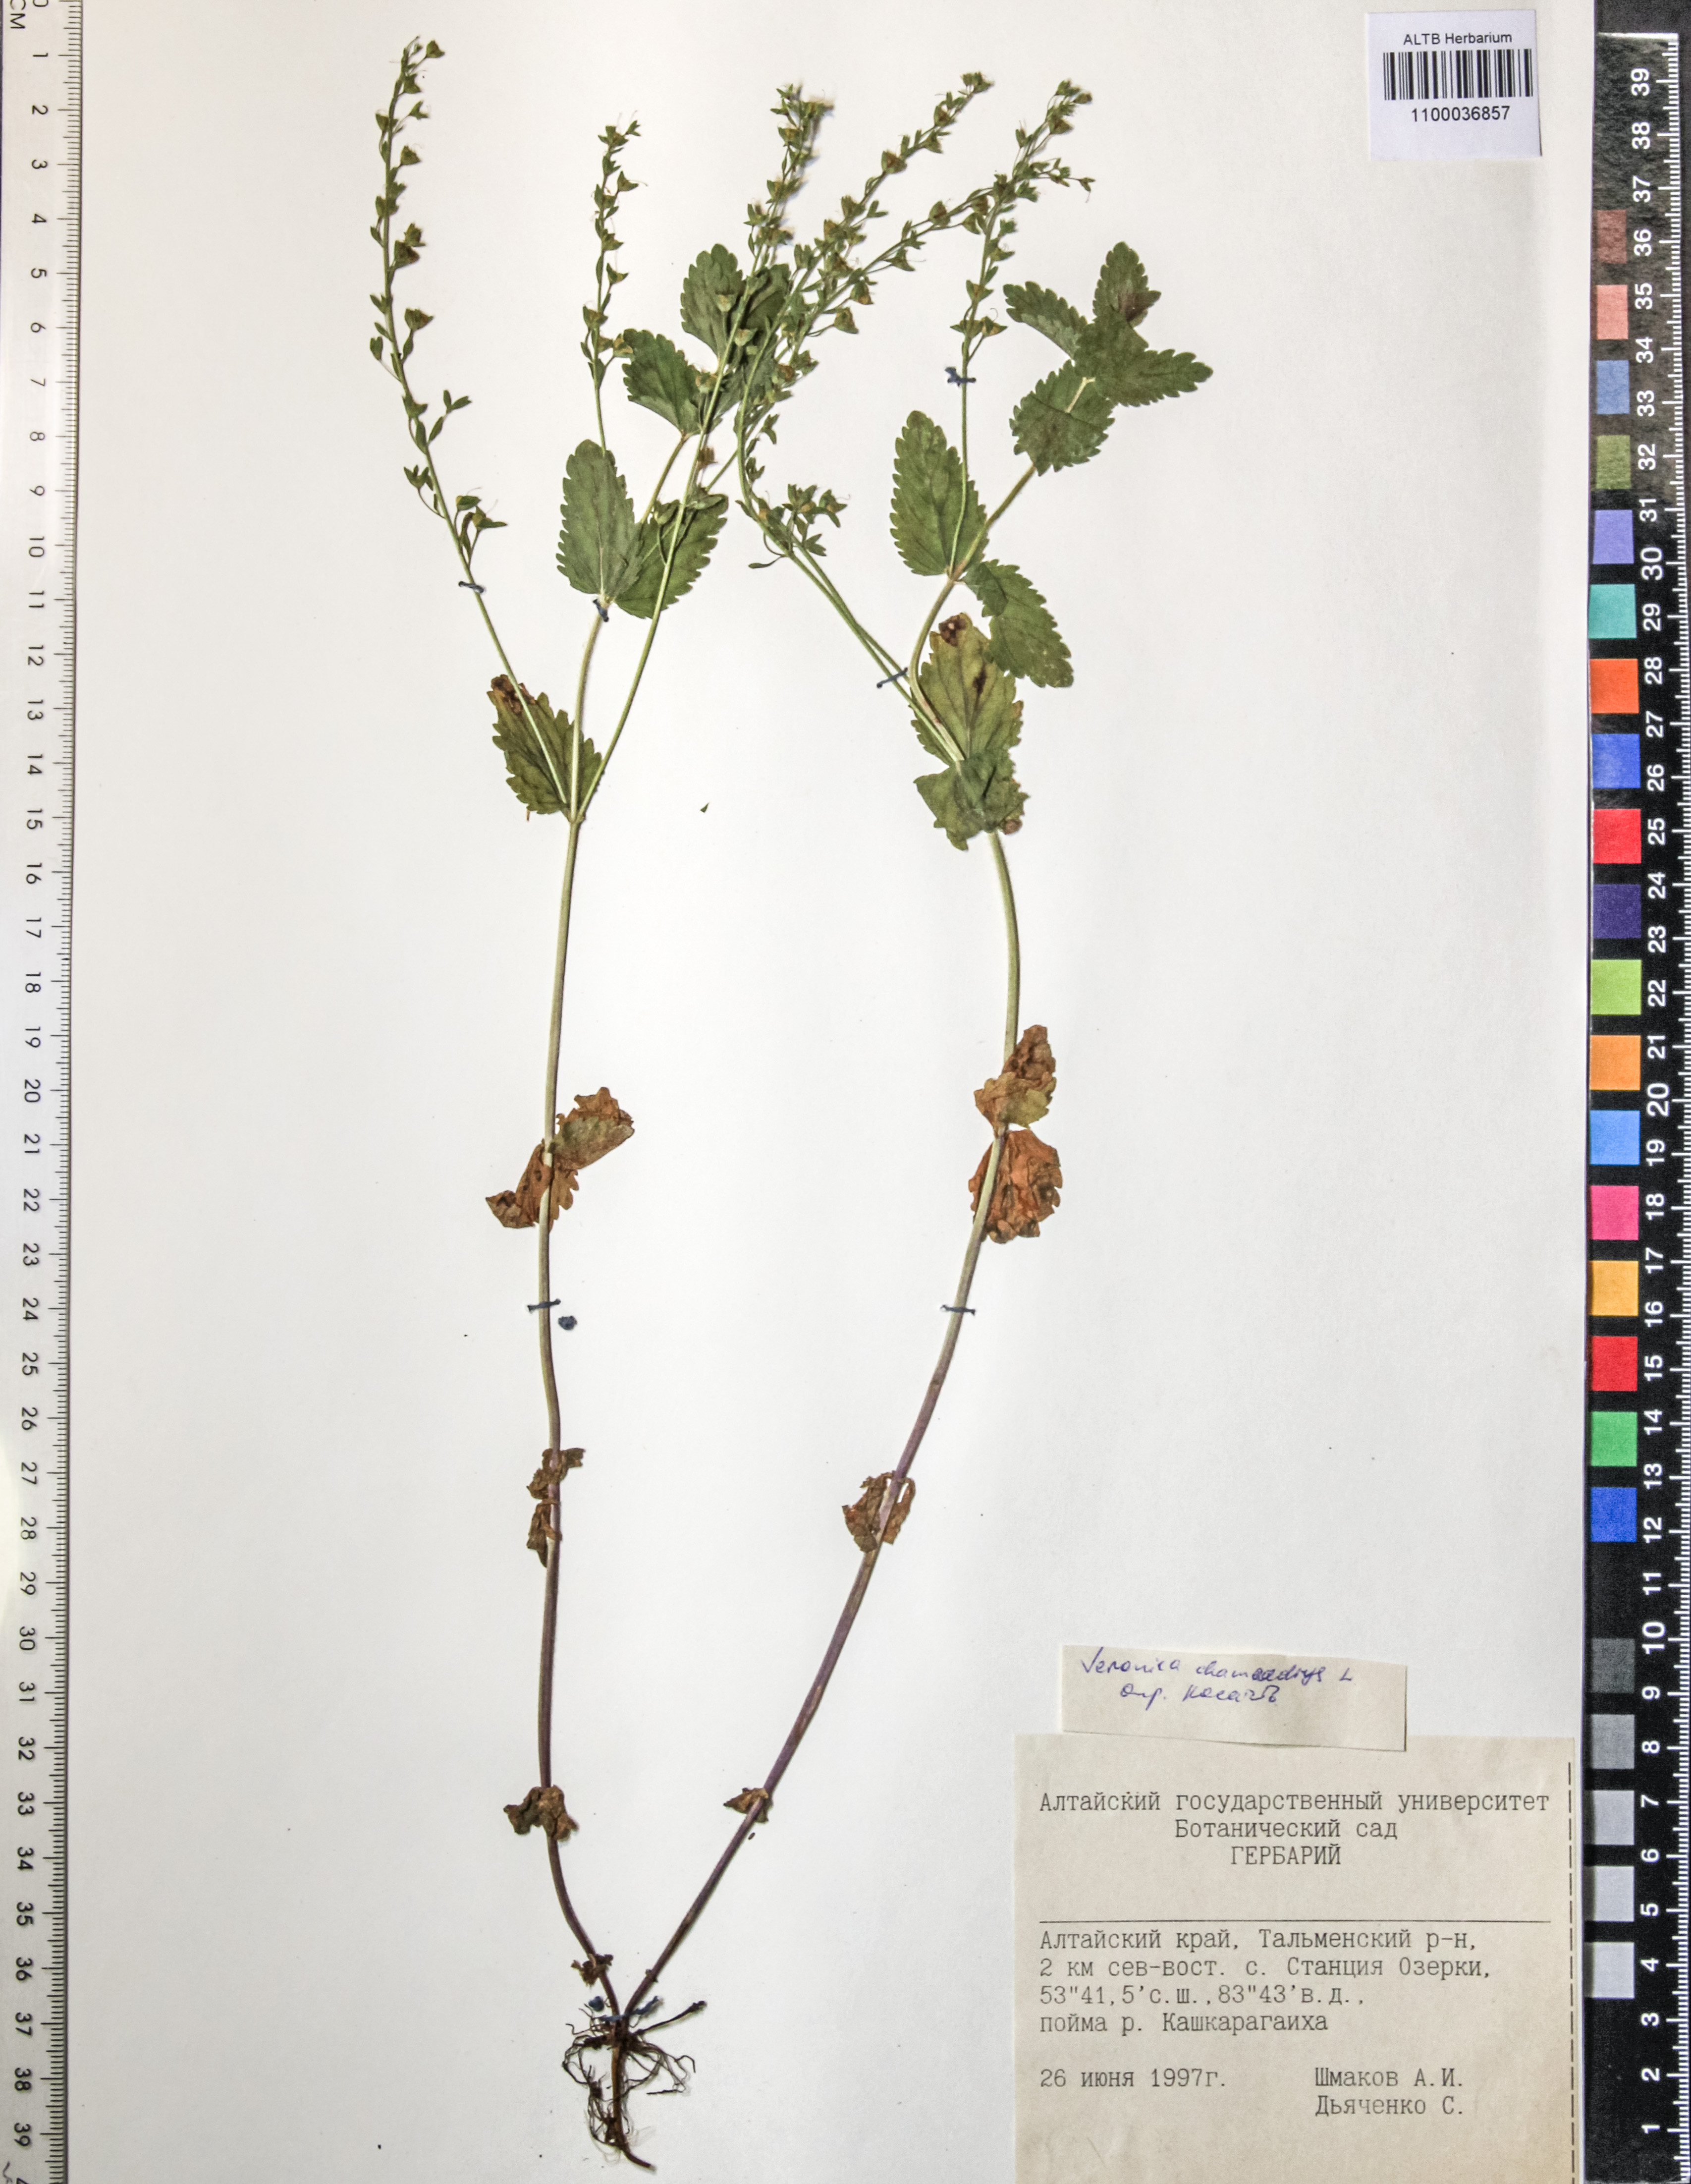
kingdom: Plantae
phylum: Tracheophyta
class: Magnoliopsida
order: Lamiales
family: Plantaginaceae
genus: Veronica
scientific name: Veronica chamaedrys
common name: Germander speedwell
